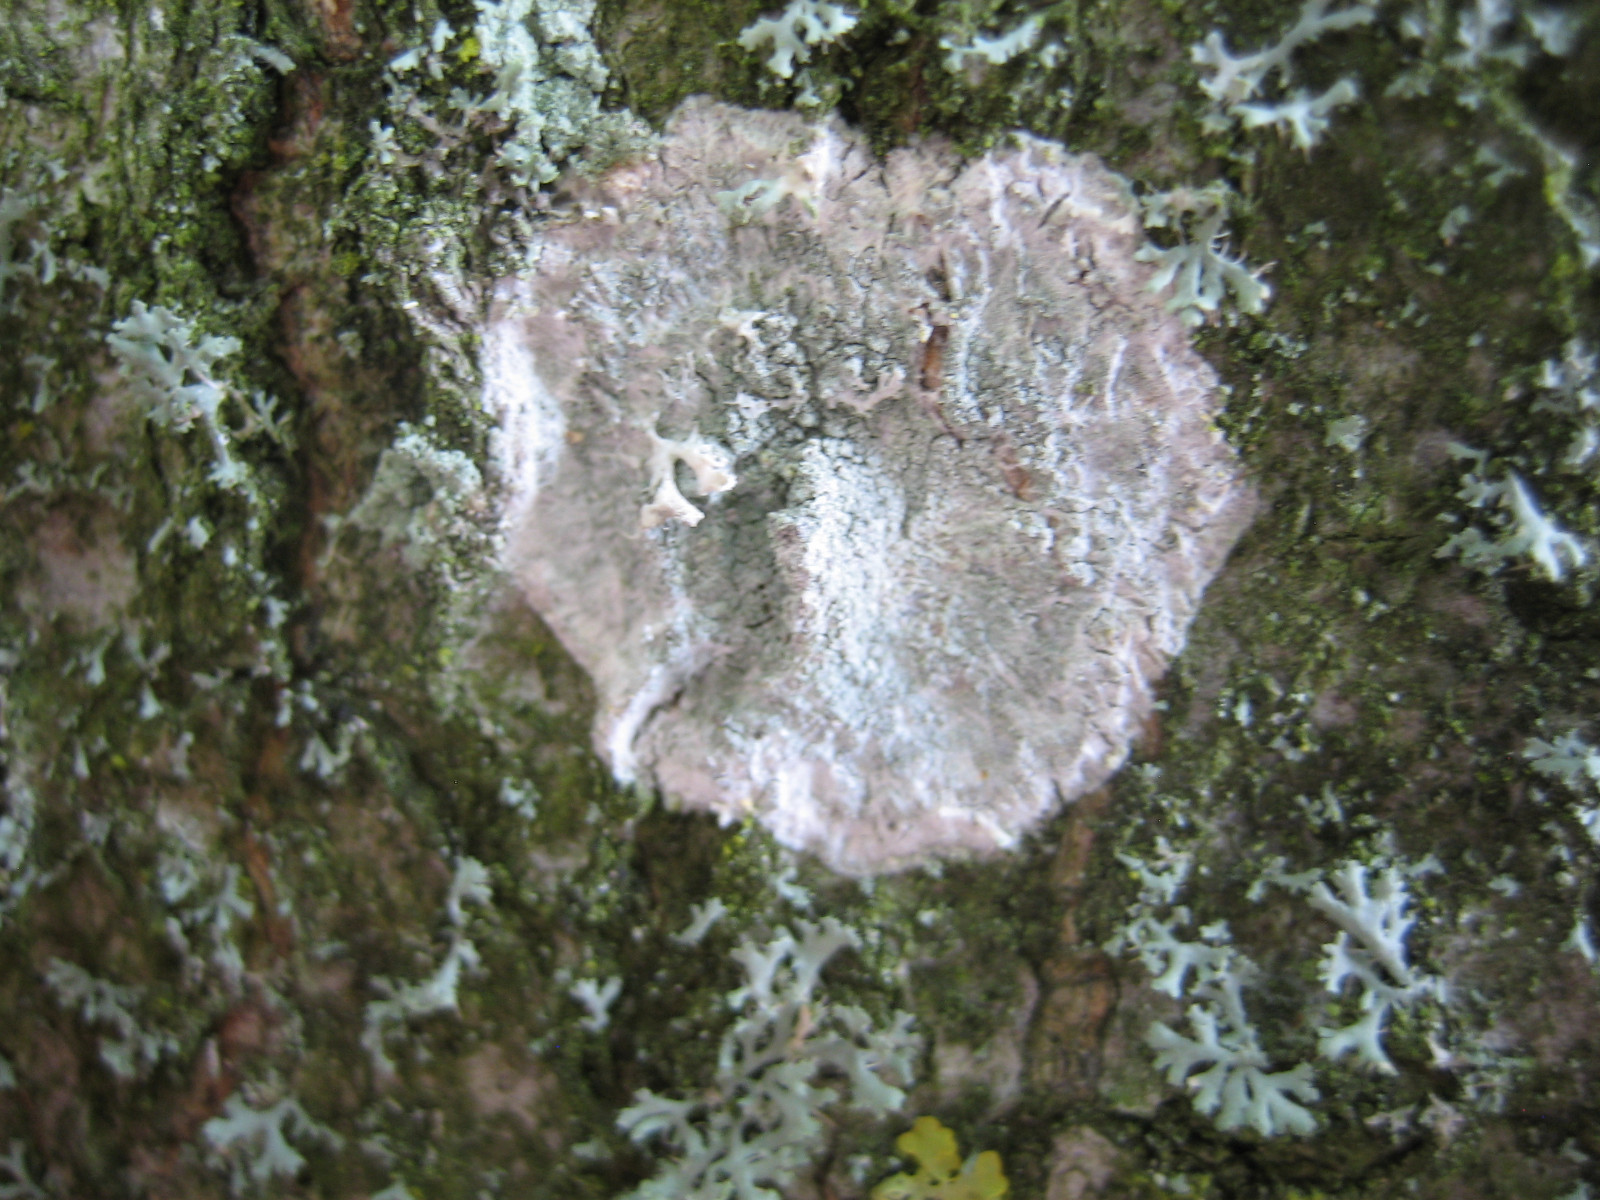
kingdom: Fungi
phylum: Ascomycota
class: Lecanoromycetes
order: Ostropales
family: Phlyctidaceae
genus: Phlyctis
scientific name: Phlyctis argena
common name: almindelig sølvlav
